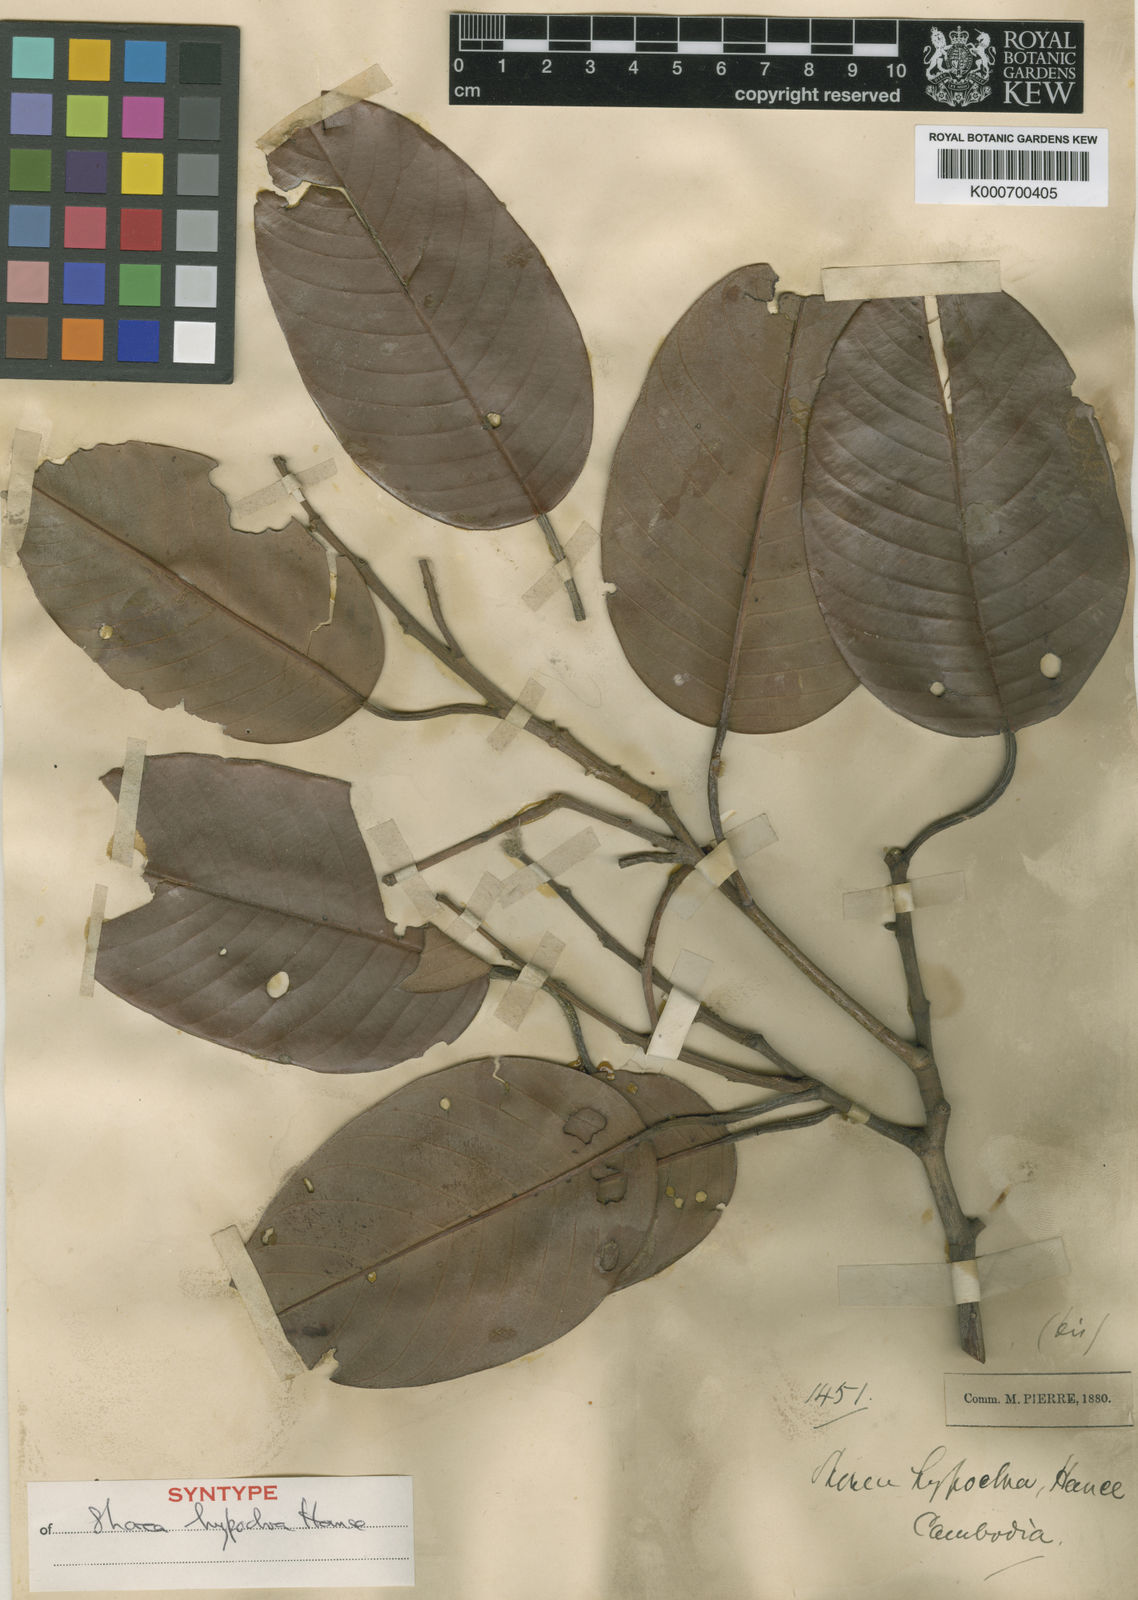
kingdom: Plantae
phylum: Tracheophyta
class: Magnoliopsida
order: Malvales
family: Dipterocarpaceae
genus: Anthoshorea
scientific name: Anthoshorea hypochra
